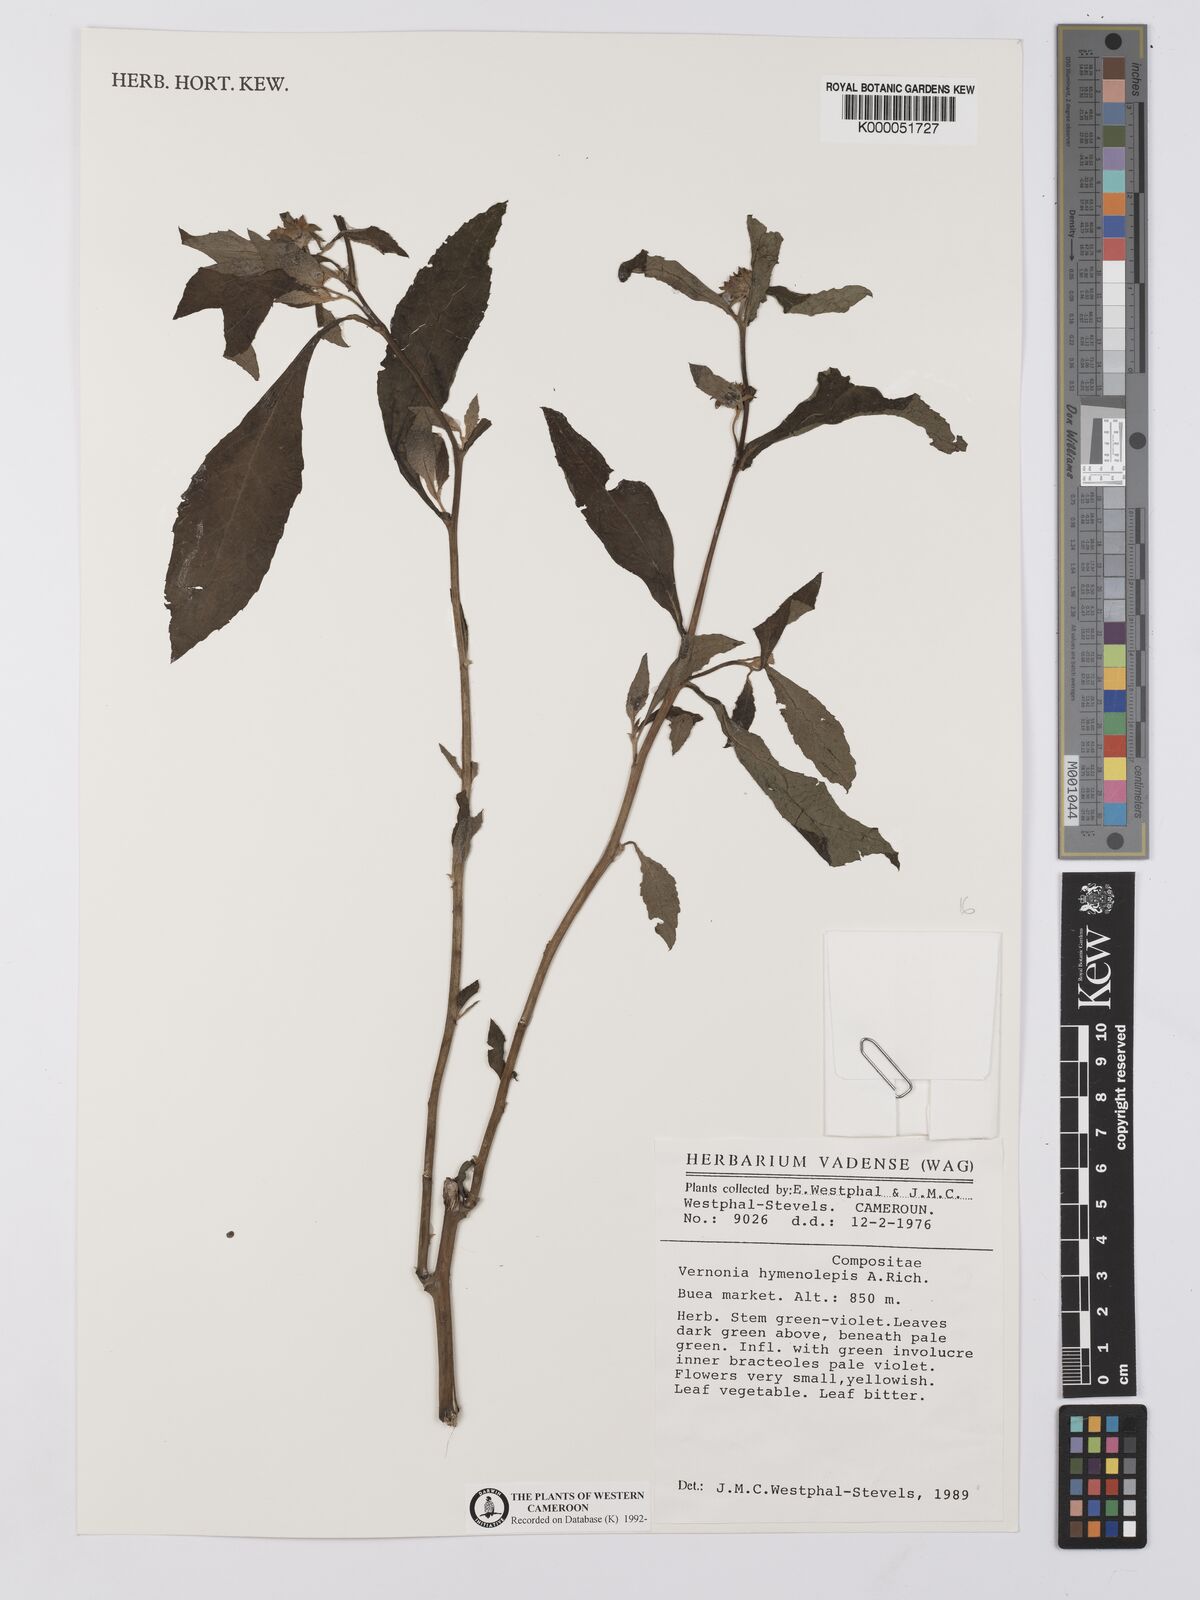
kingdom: Plantae
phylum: Tracheophyta
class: Magnoliopsida
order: Asterales
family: Asteraceae
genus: Baccharoides
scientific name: Baccharoides hymenolepis
